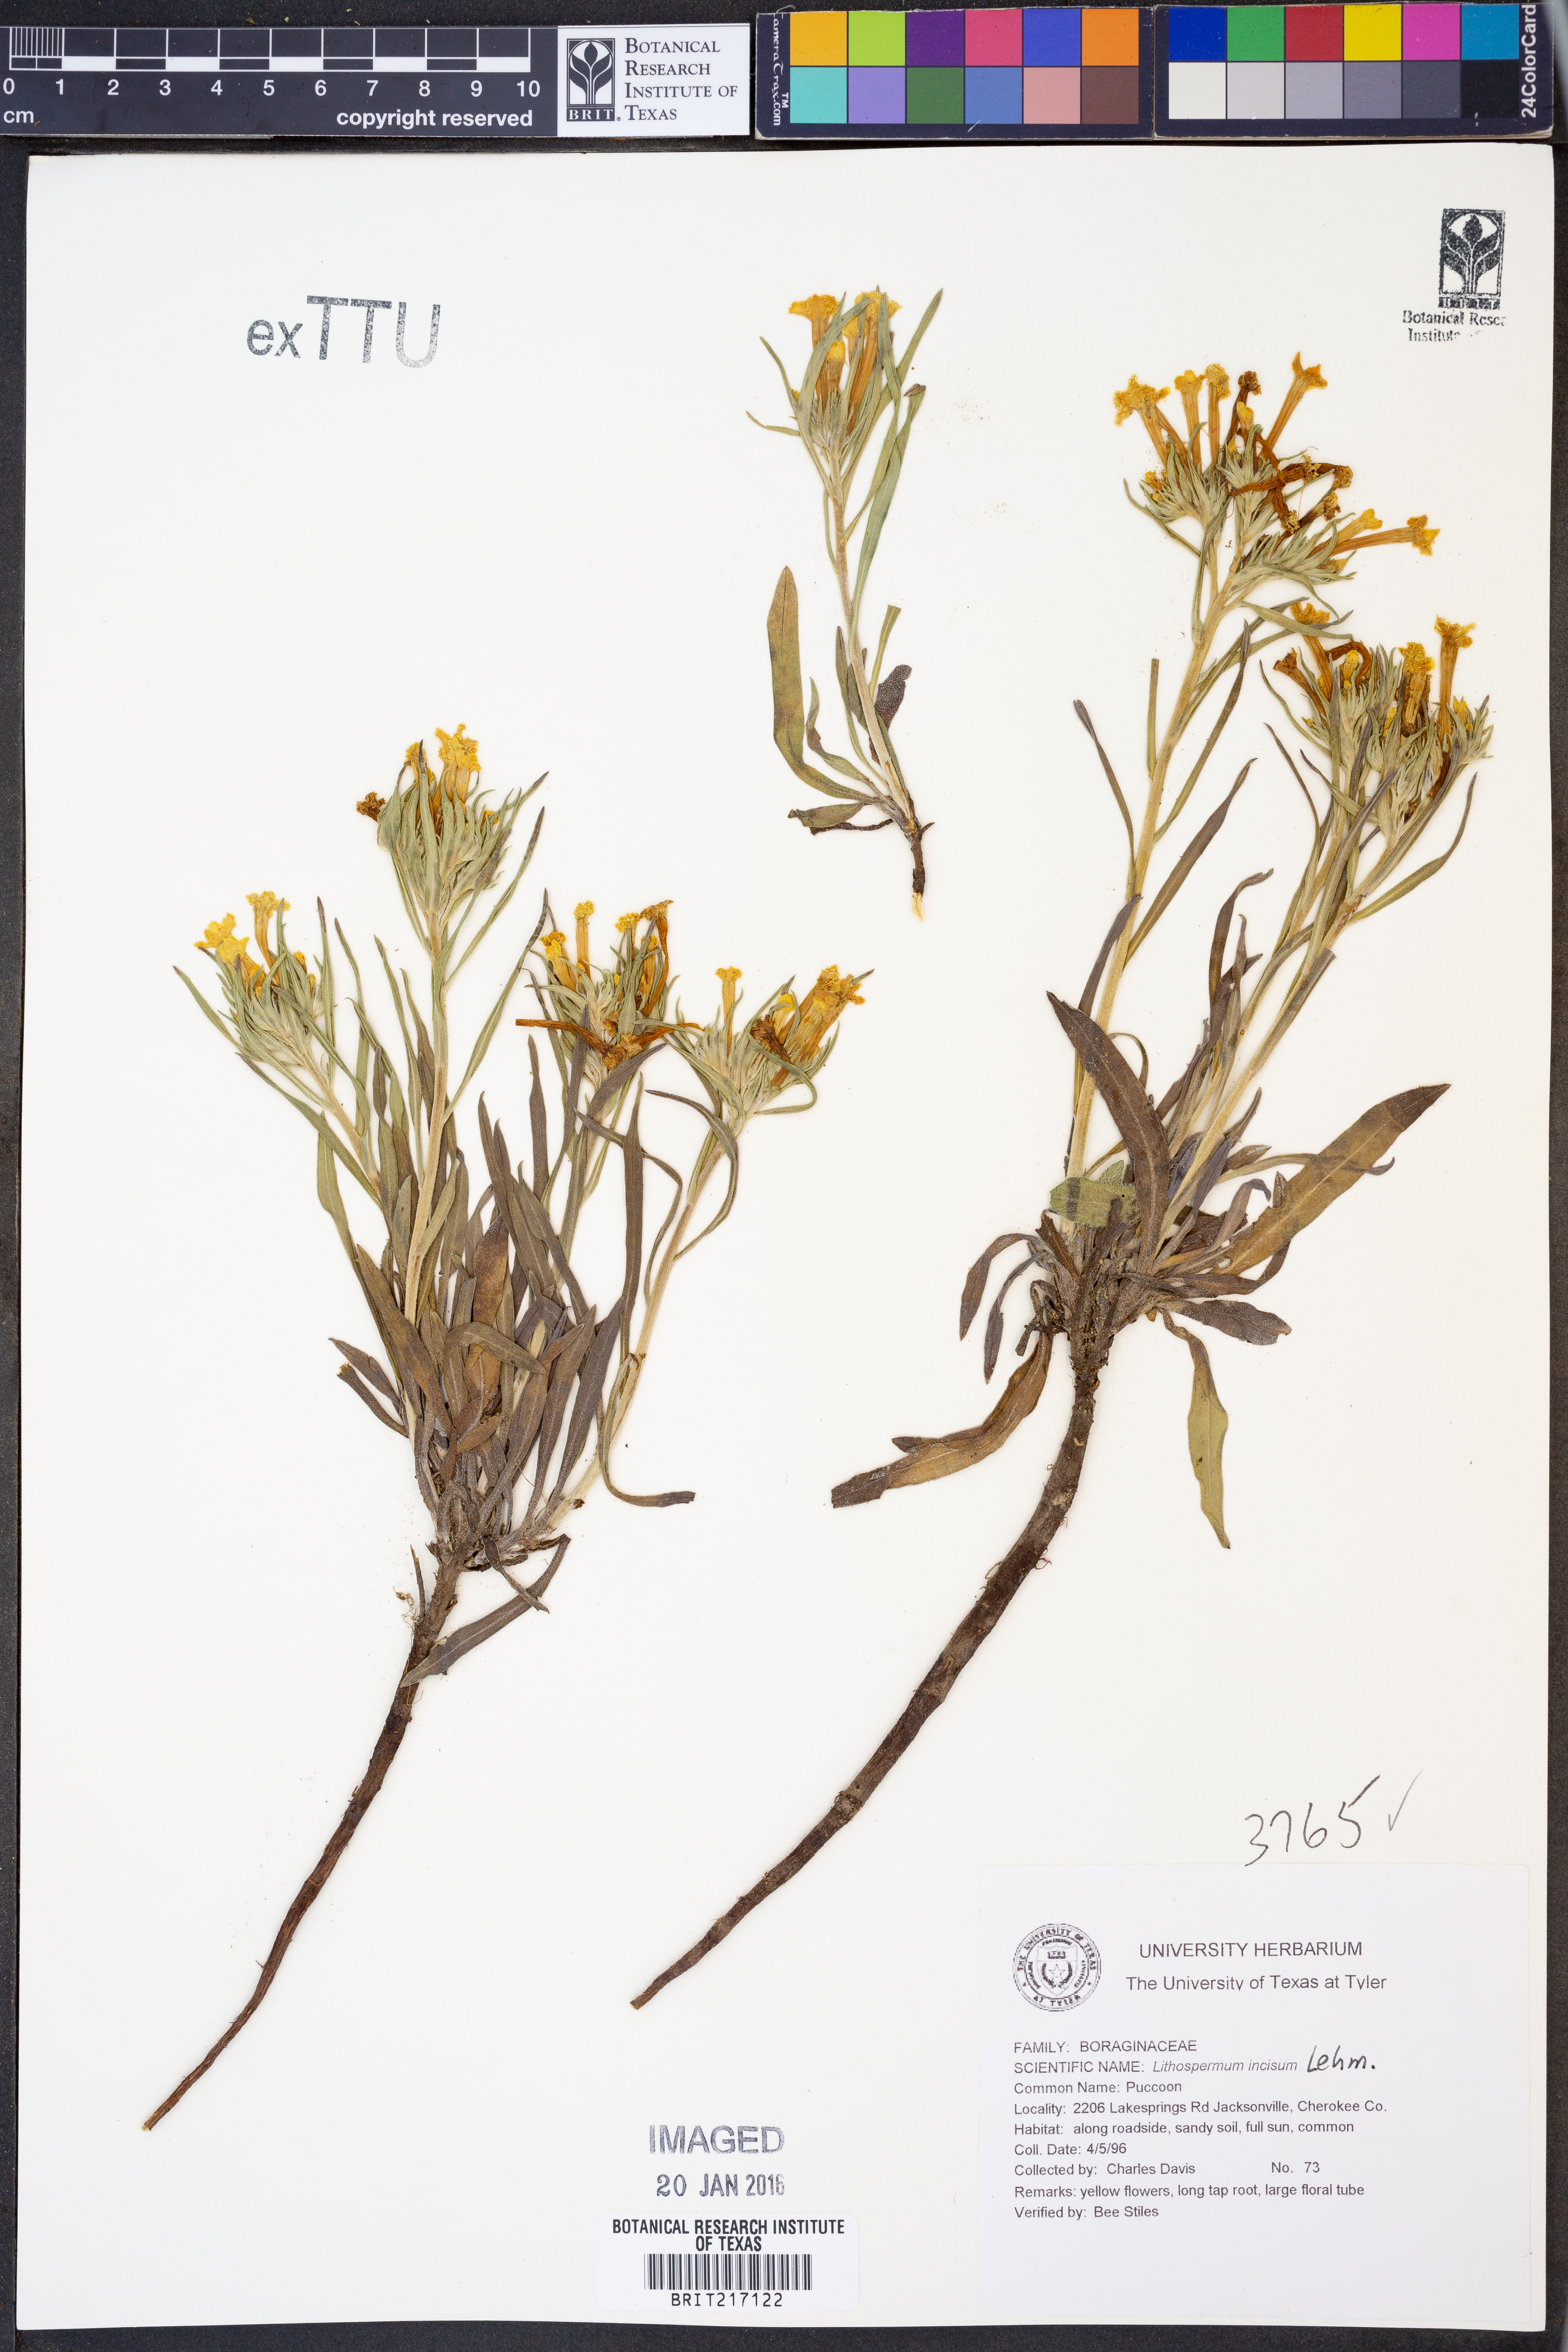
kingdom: Plantae
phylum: Tracheophyta
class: Magnoliopsida
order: Boraginales
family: Boraginaceae
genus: Lithospermum
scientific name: Lithospermum incisum
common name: Fringed gromwell
